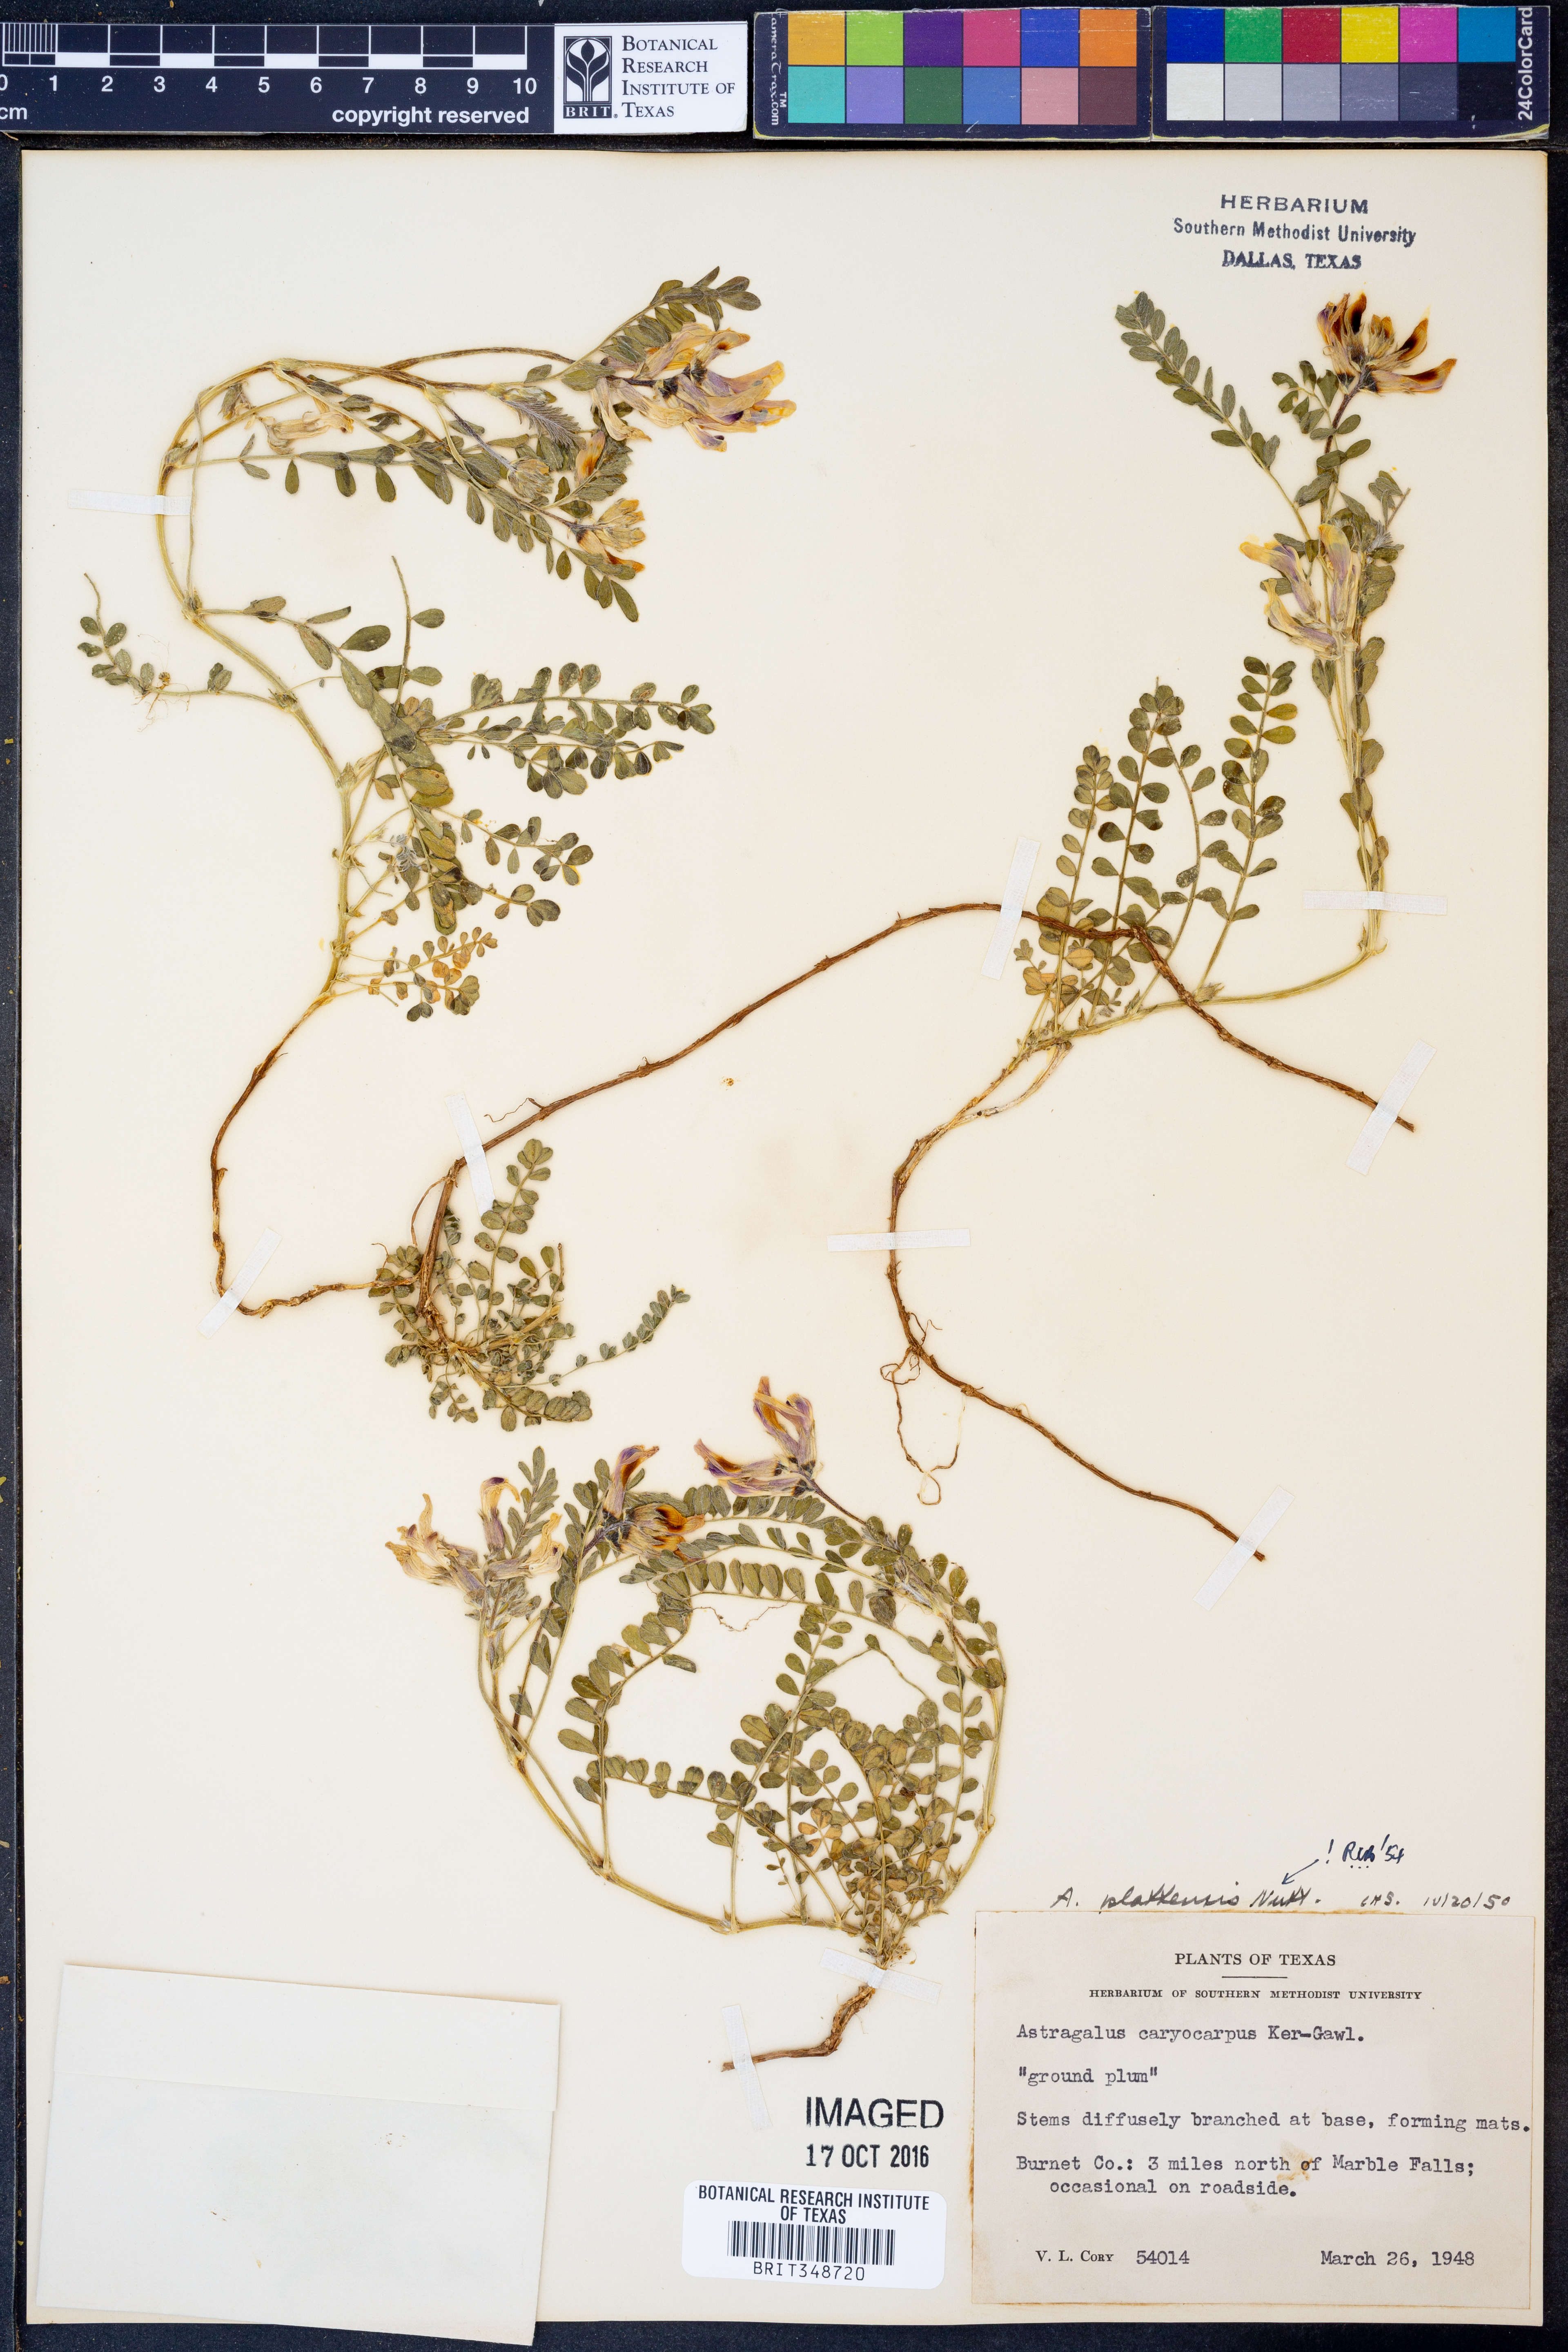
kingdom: Plantae
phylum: Tracheophyta
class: Magnoliopsida
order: Fabales
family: Fabaceae
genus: Astragalus
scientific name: Astragalus plattensis
